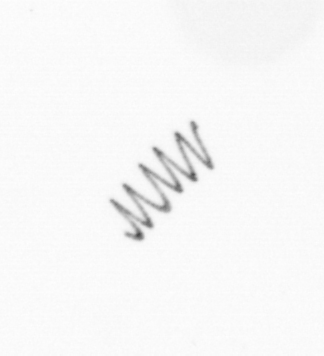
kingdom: Chromista
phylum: Ochrophyta
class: Bacillariophyceae
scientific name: Bacillariophyceae
